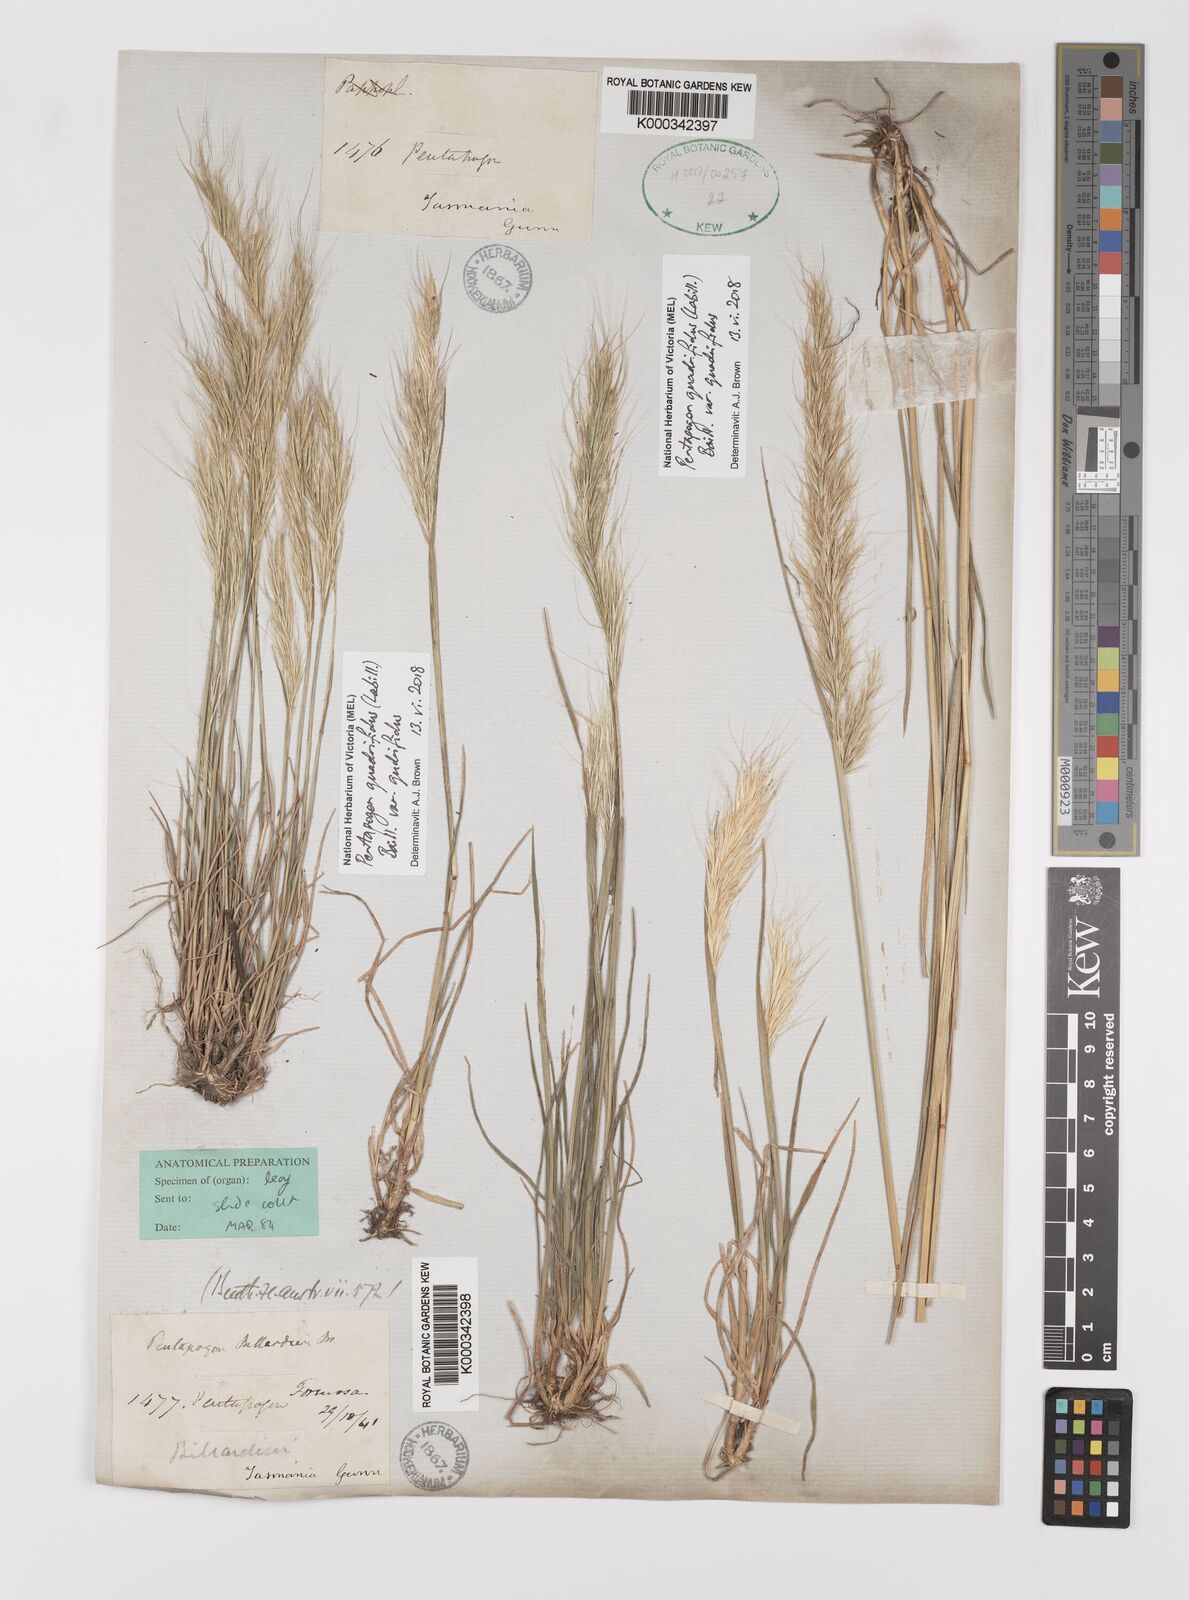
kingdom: Plantae
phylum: Tracheophyta
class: Liliopsida
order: Poales
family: Poaceae
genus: Pentapogon
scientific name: Pentapogon
